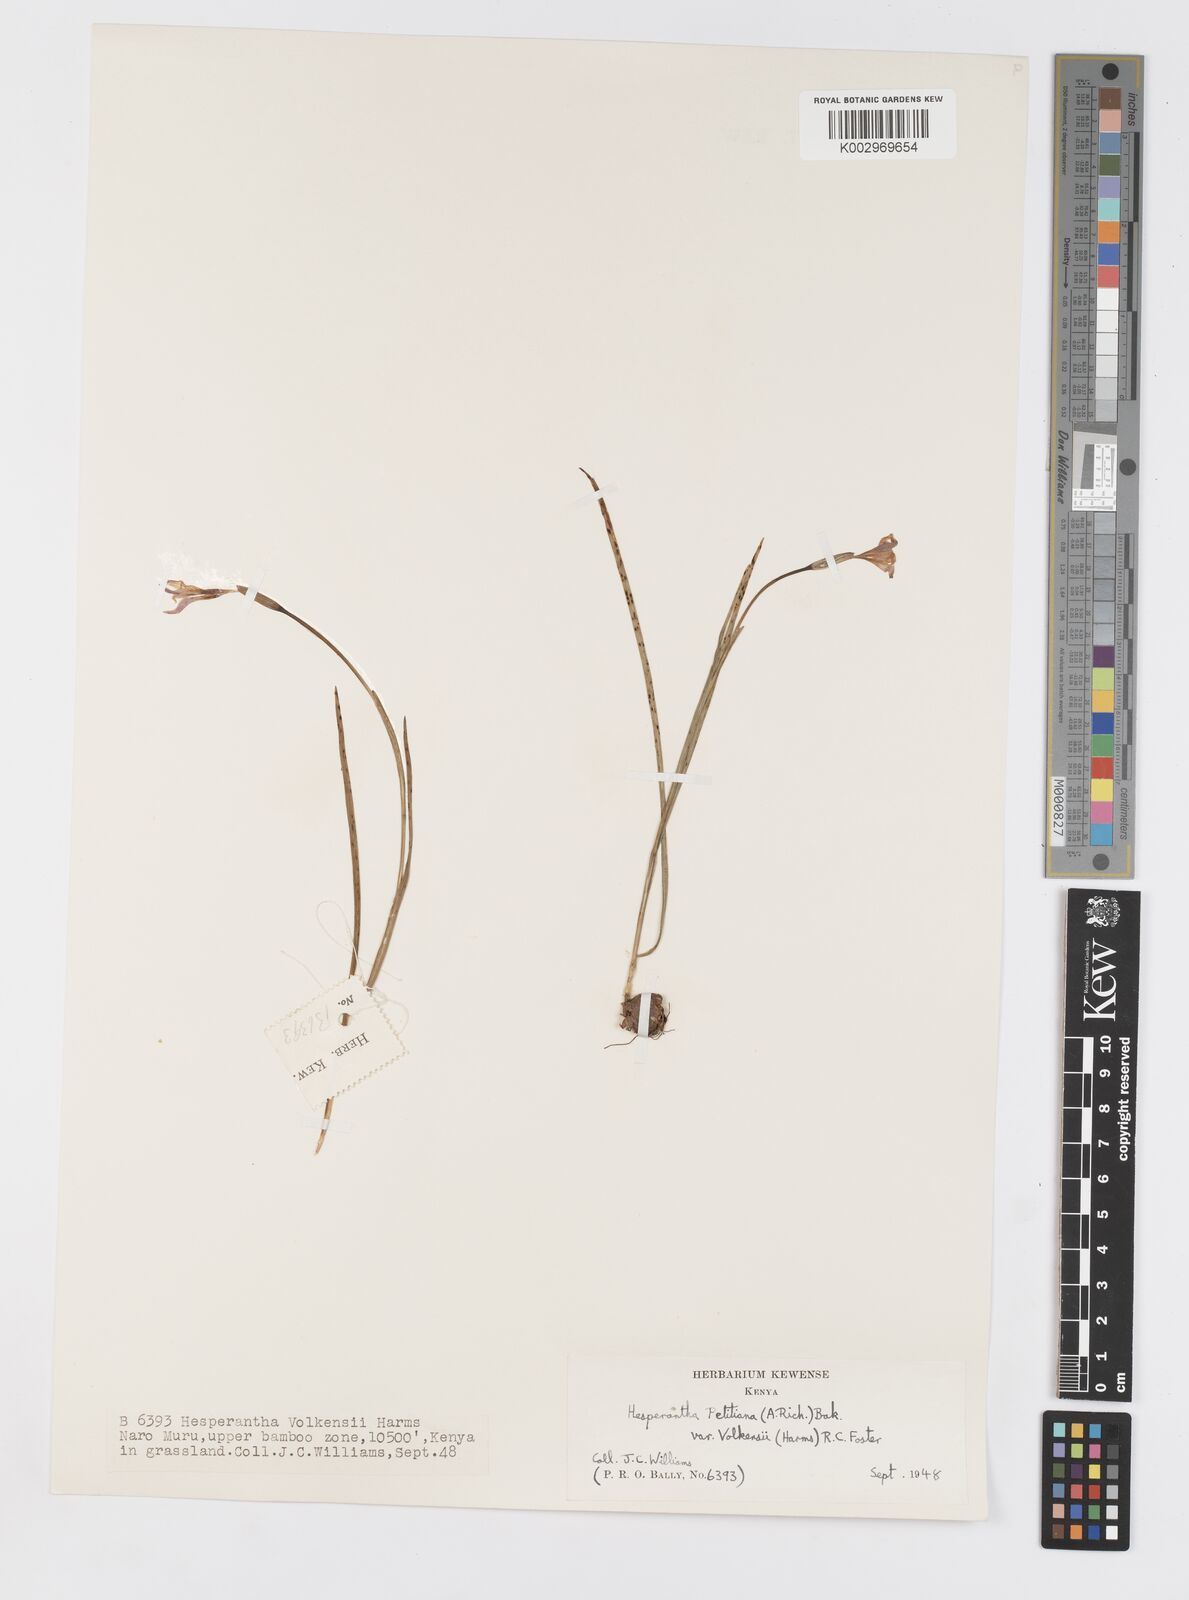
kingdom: Plantae
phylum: Tracheophyta
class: Liliopsida
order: Asparagales
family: Iridaceae
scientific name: Iridaceae
